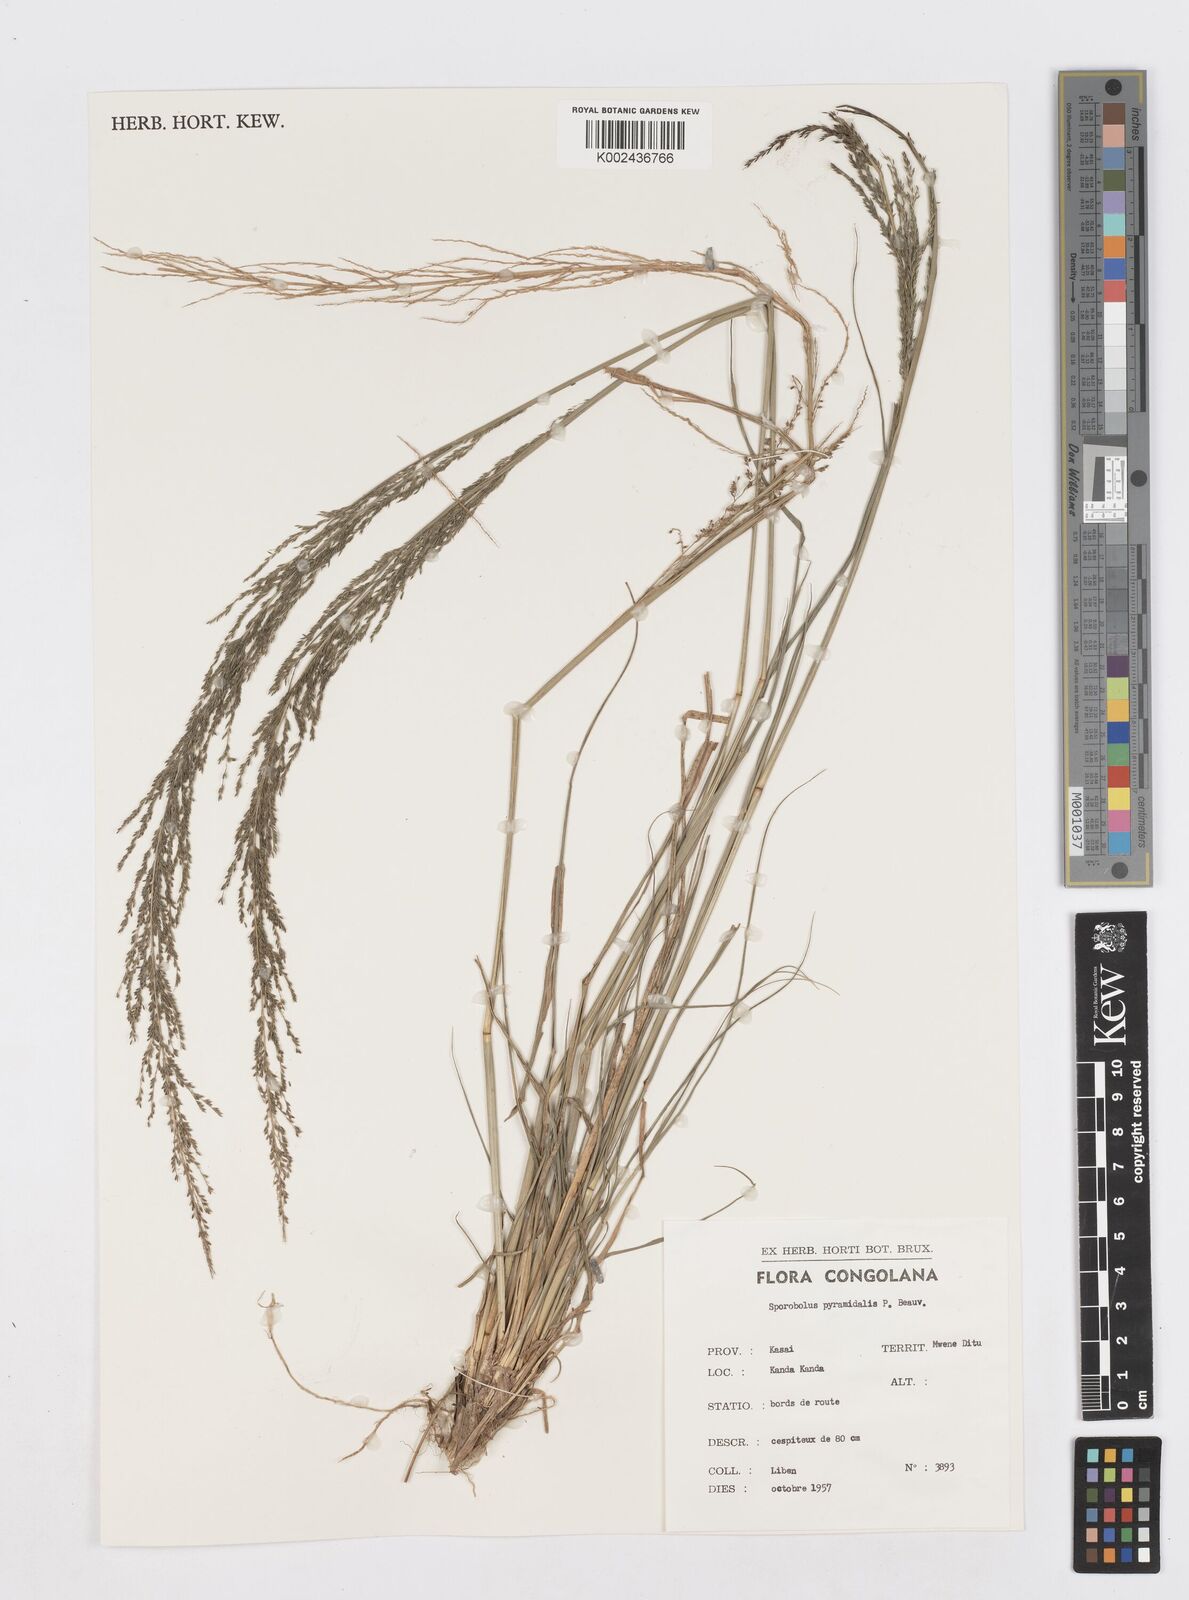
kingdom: Plantae
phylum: Tracheophyta
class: Liliopsida
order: Poales
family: Poaceae
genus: Sporobolus
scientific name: Sporobolus pyramidalis
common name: West indian dropseed
